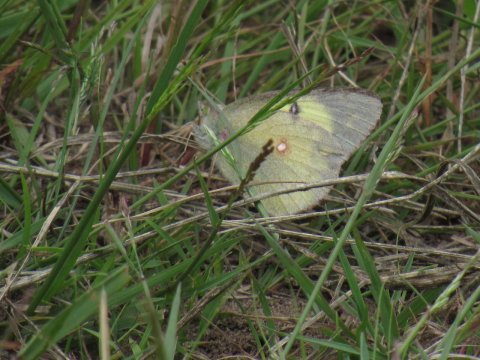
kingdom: Animalia
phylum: Arthropoda
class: Insecta
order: Lepidoptera
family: Pieridae
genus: Colias
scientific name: Colias philodice
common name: Clouded Sulphur
